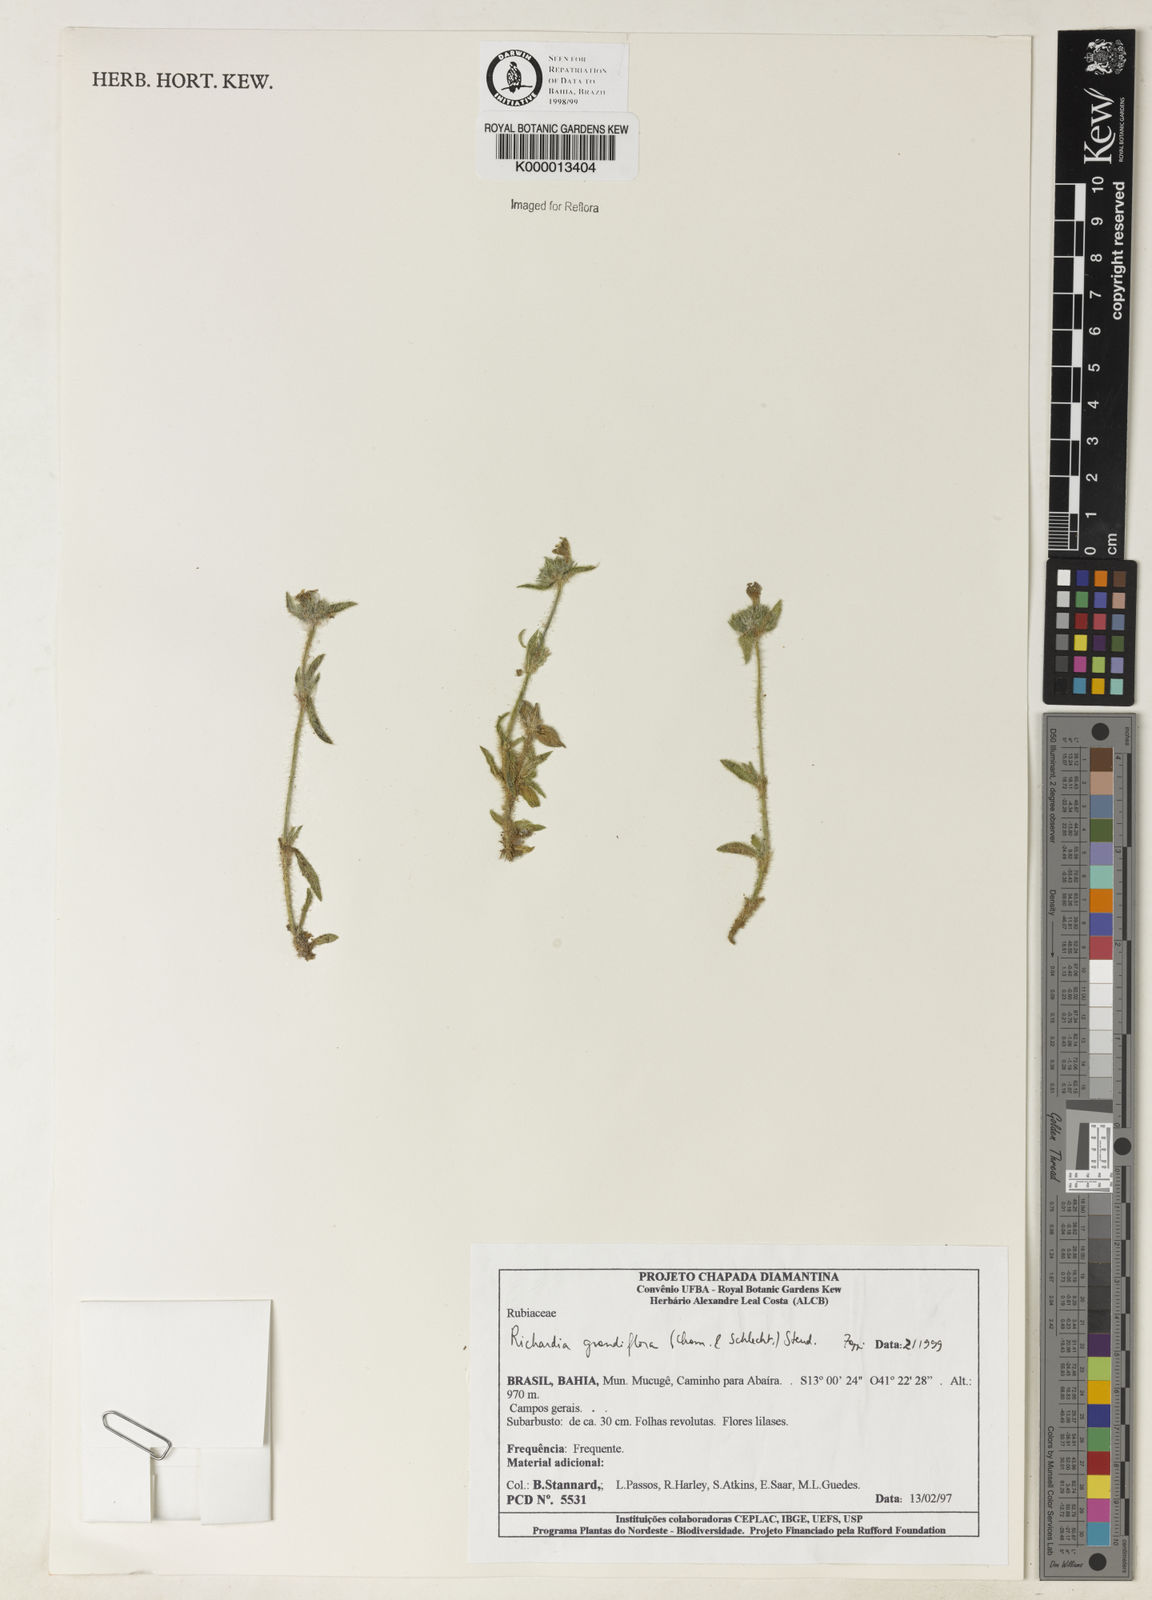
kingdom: Plantae
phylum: Tracheophyta
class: Magnoliopsida
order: Gentianales
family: Rubiaceae
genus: Richardia
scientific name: Richardia grandiflora
